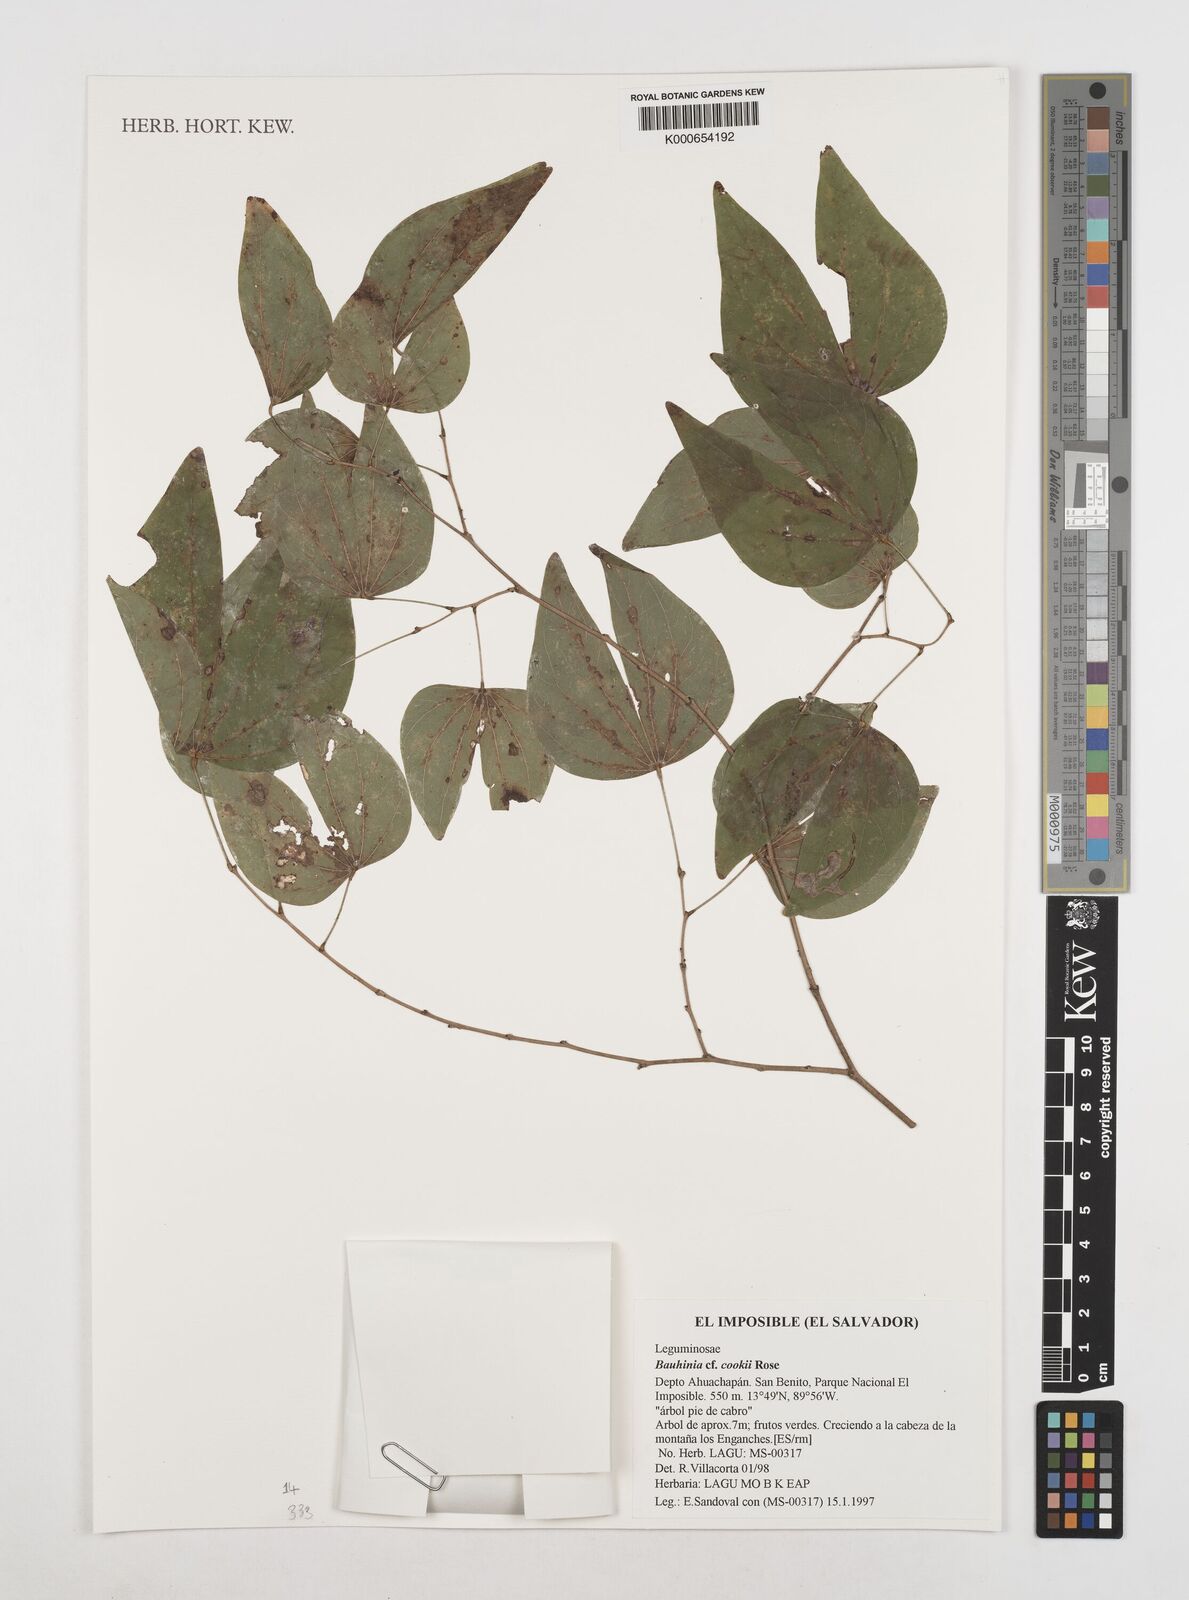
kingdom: Plantae
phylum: Tracheophyta
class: Magnoliopsida
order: Fabales
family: Fabaceae
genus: Bauhinia
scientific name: Bauhinia cookii
